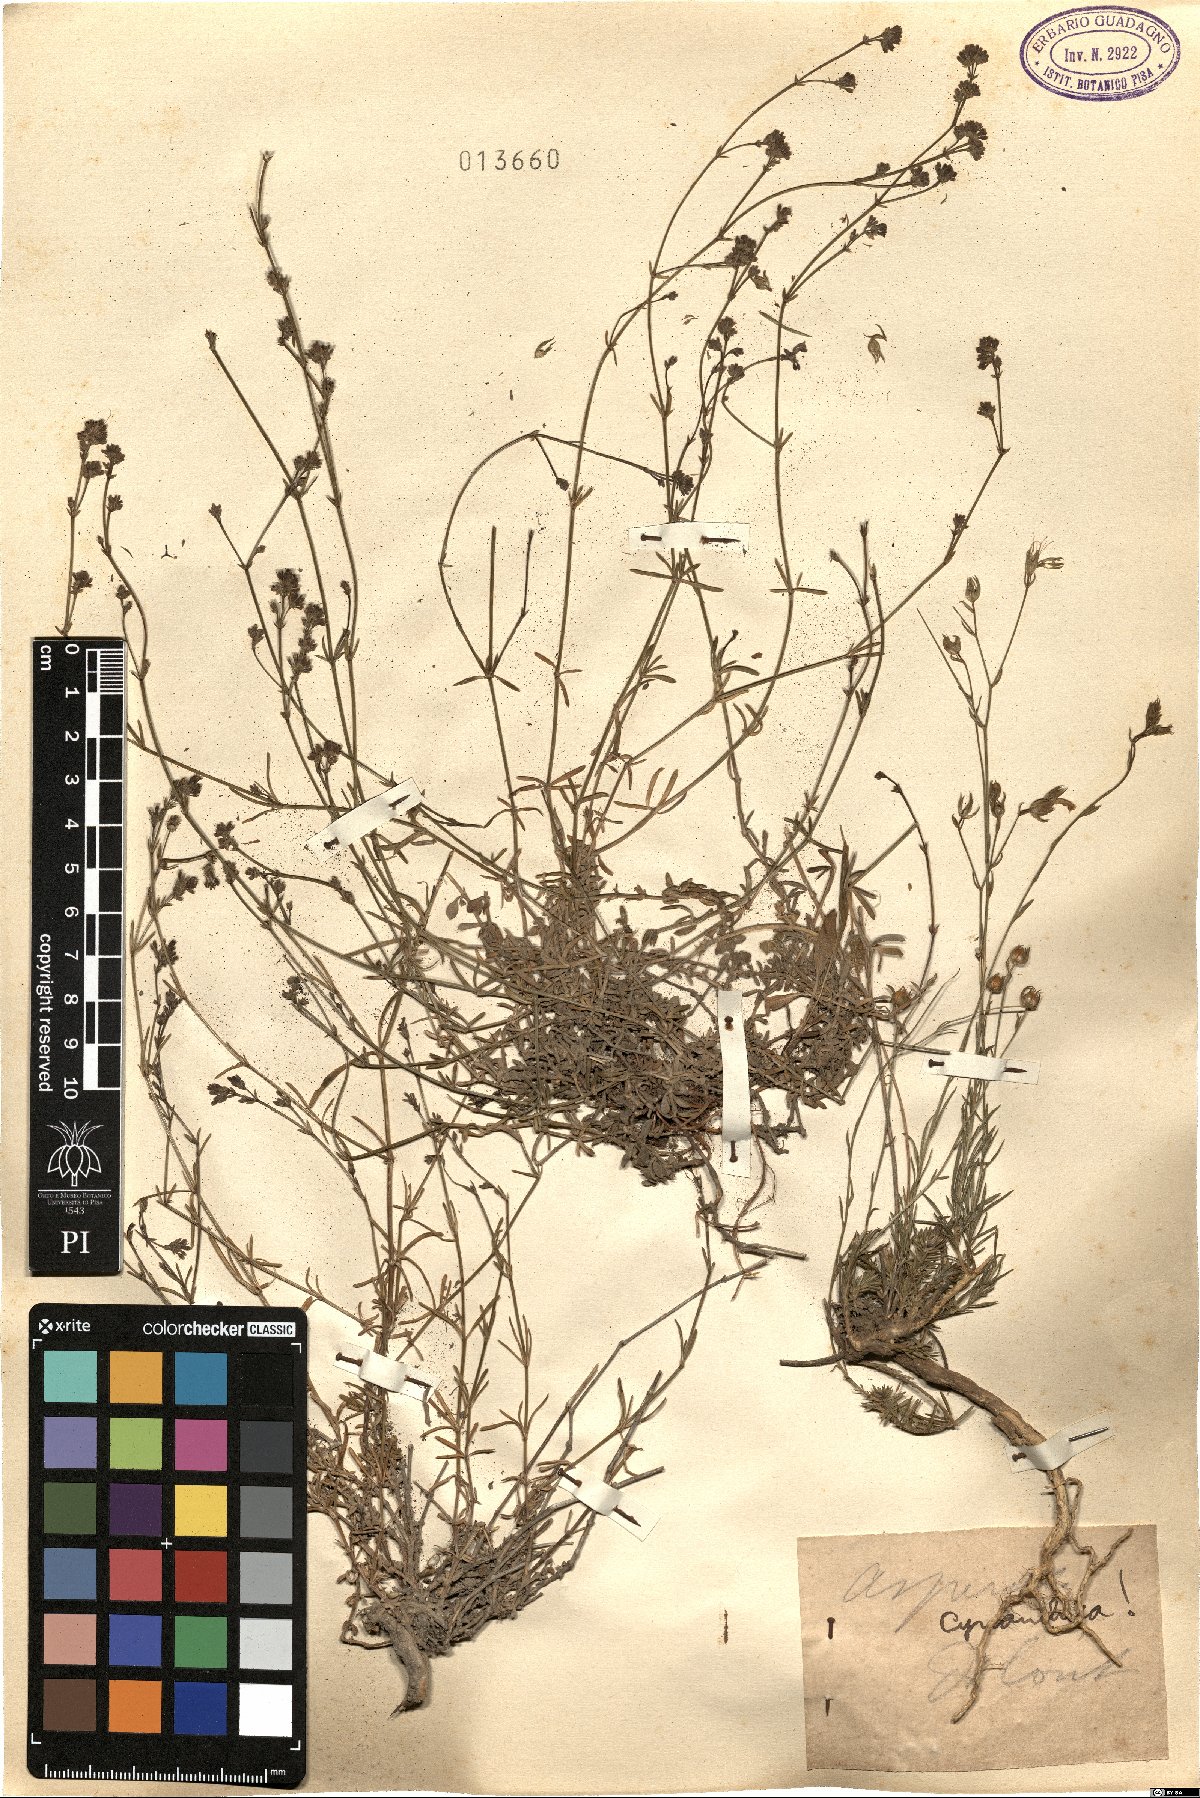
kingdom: Plantae
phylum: Tracheophyta
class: Magnoliopsida
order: Gentianales
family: Rubiaceae
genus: Cynanchica
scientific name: Cynanchica pyrenaica
